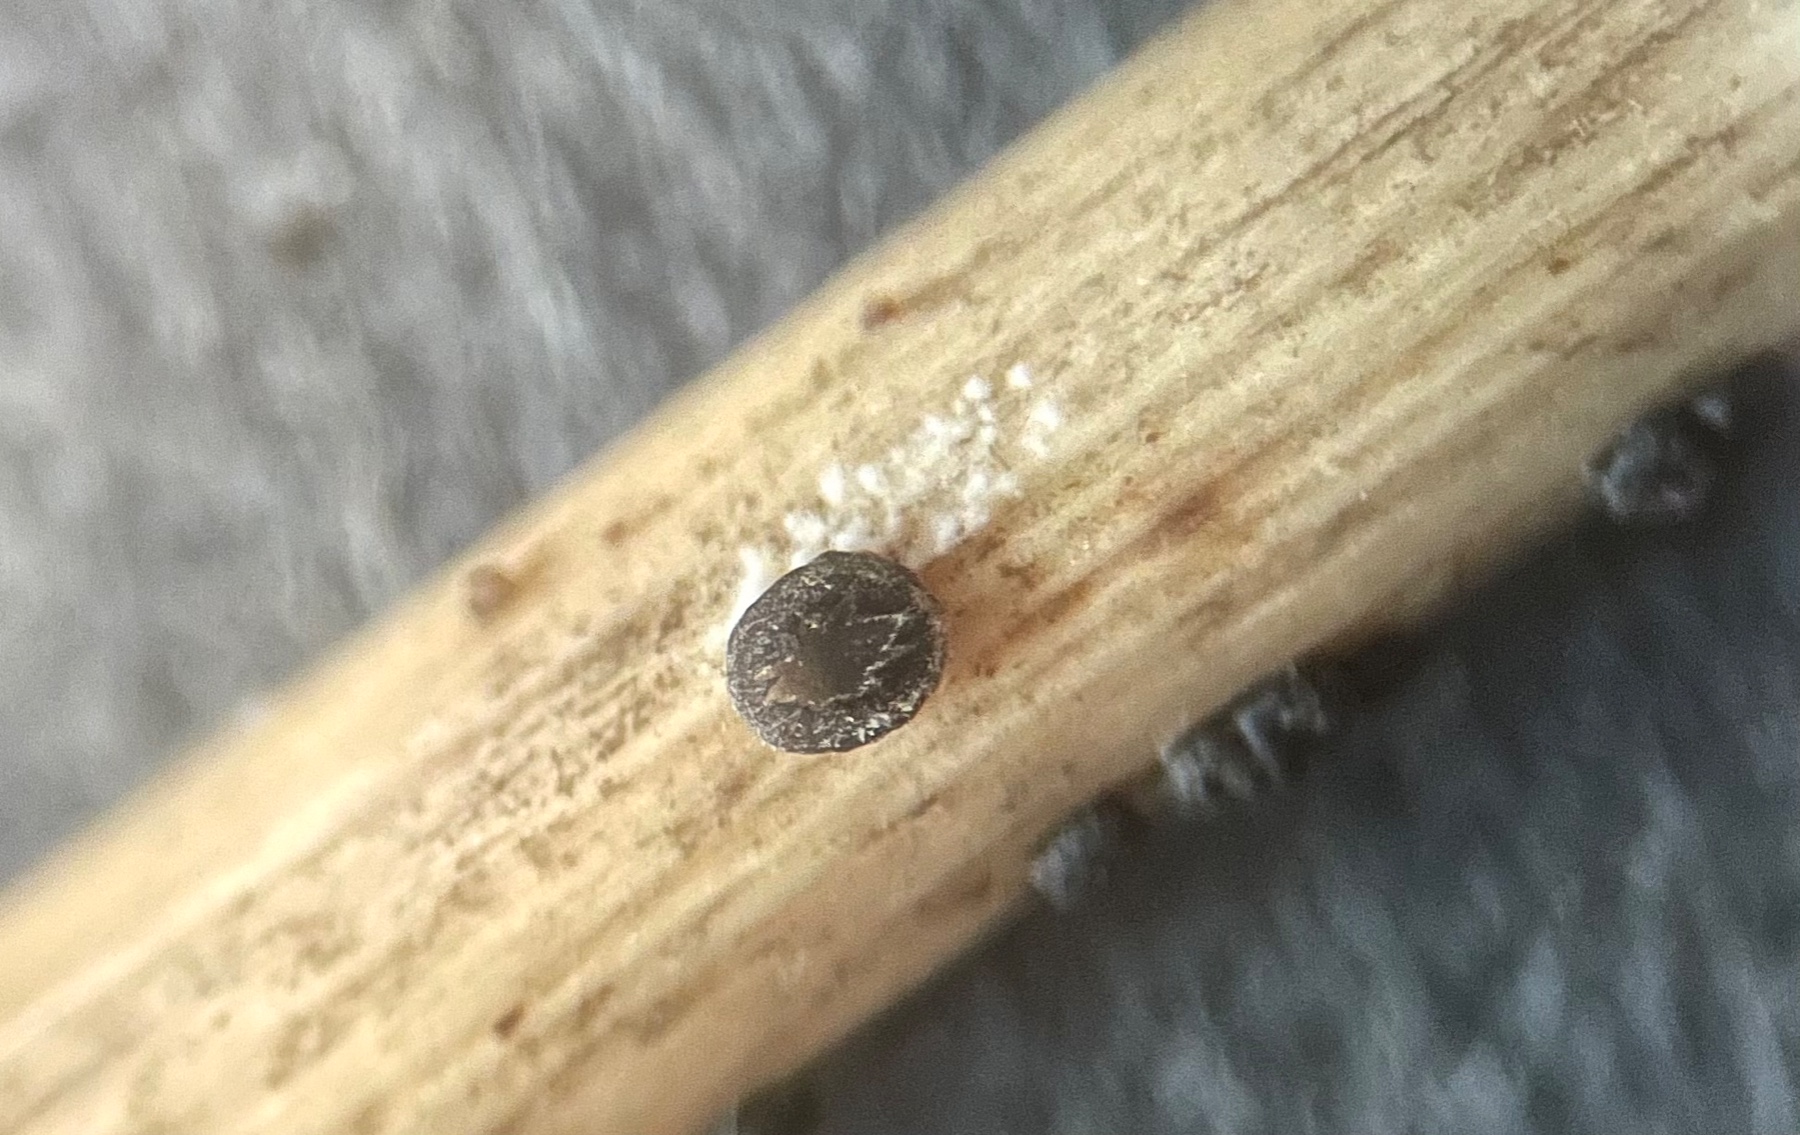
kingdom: Fungi
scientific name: Fungi
